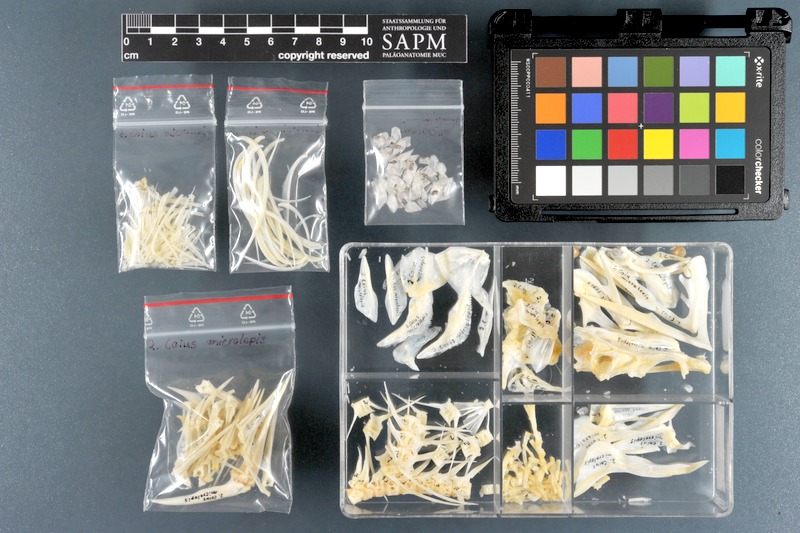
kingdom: Animalia
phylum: Chordata
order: Perciformes
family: Datnioididae
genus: Datnioides
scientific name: Datnioides microlepis
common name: Finescale tigerfish
